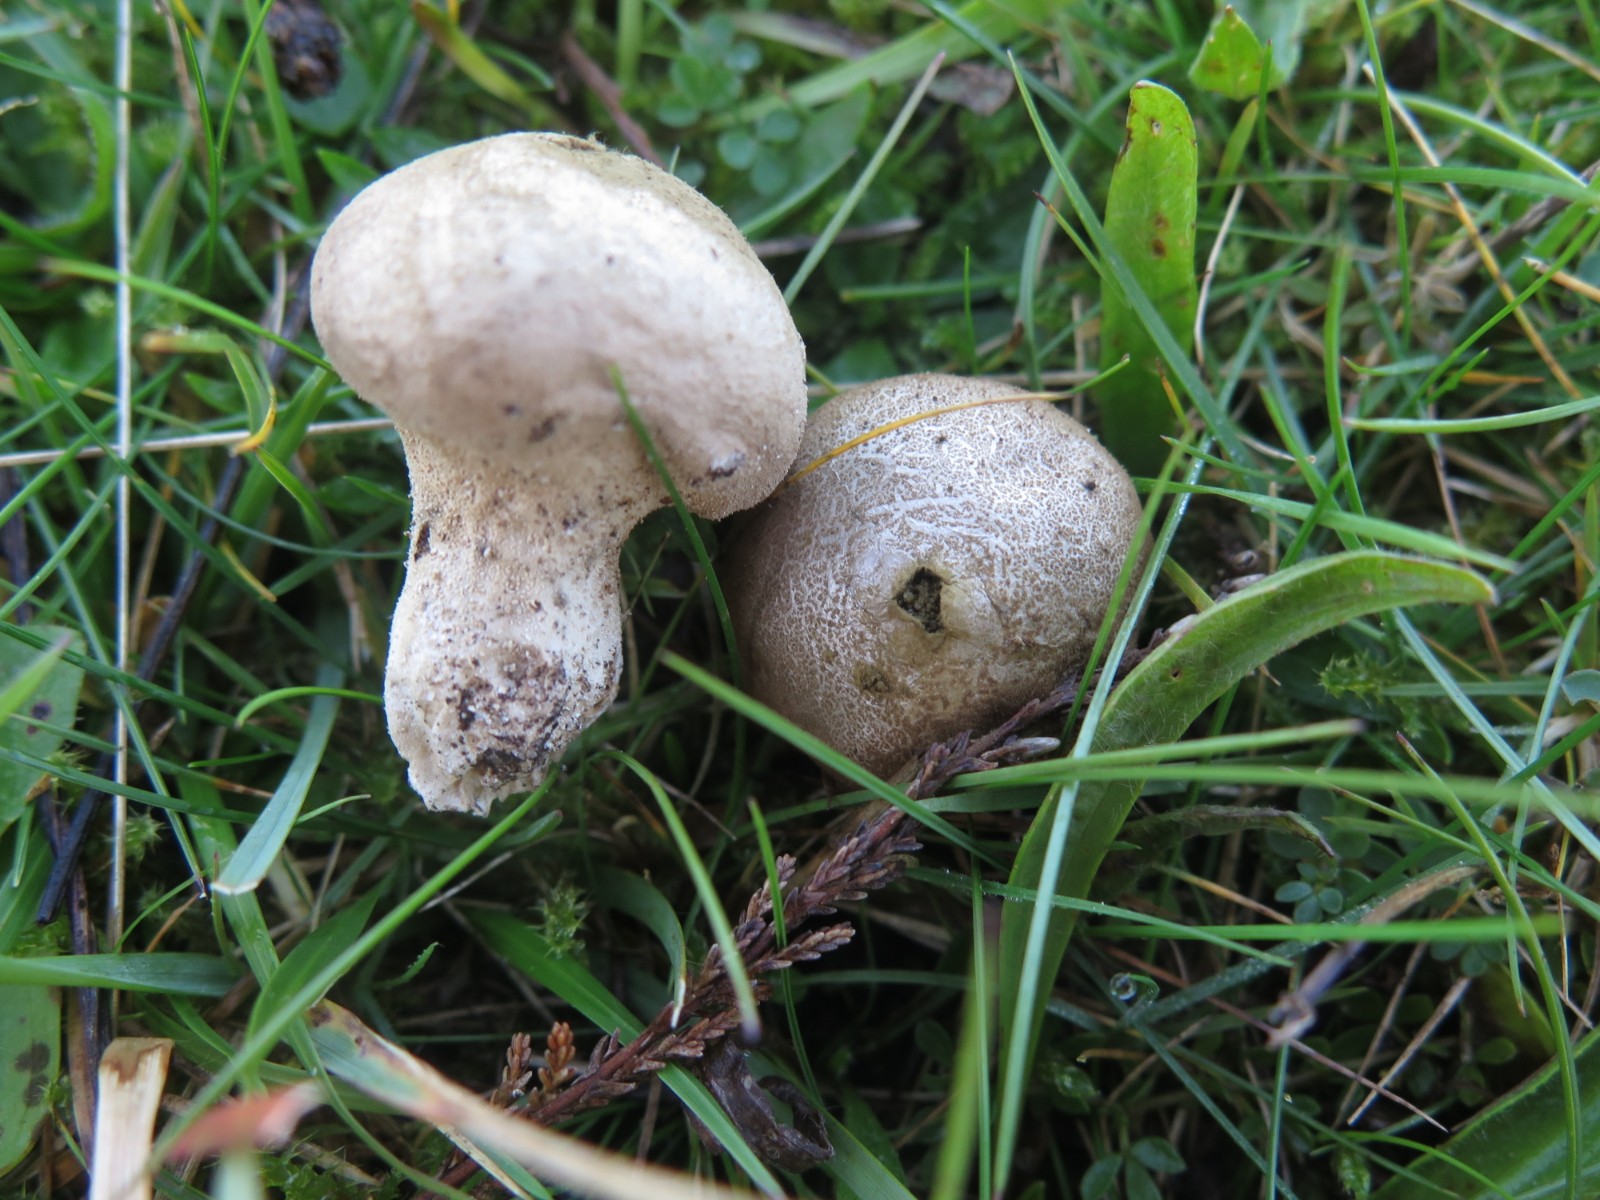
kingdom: Fungi
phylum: Basidiomycota
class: Agaricomycetes
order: Agaricales
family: Lycoperdaceae
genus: Lycoperdon
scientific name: Lycoperdon lividum
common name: mark-støvbold
